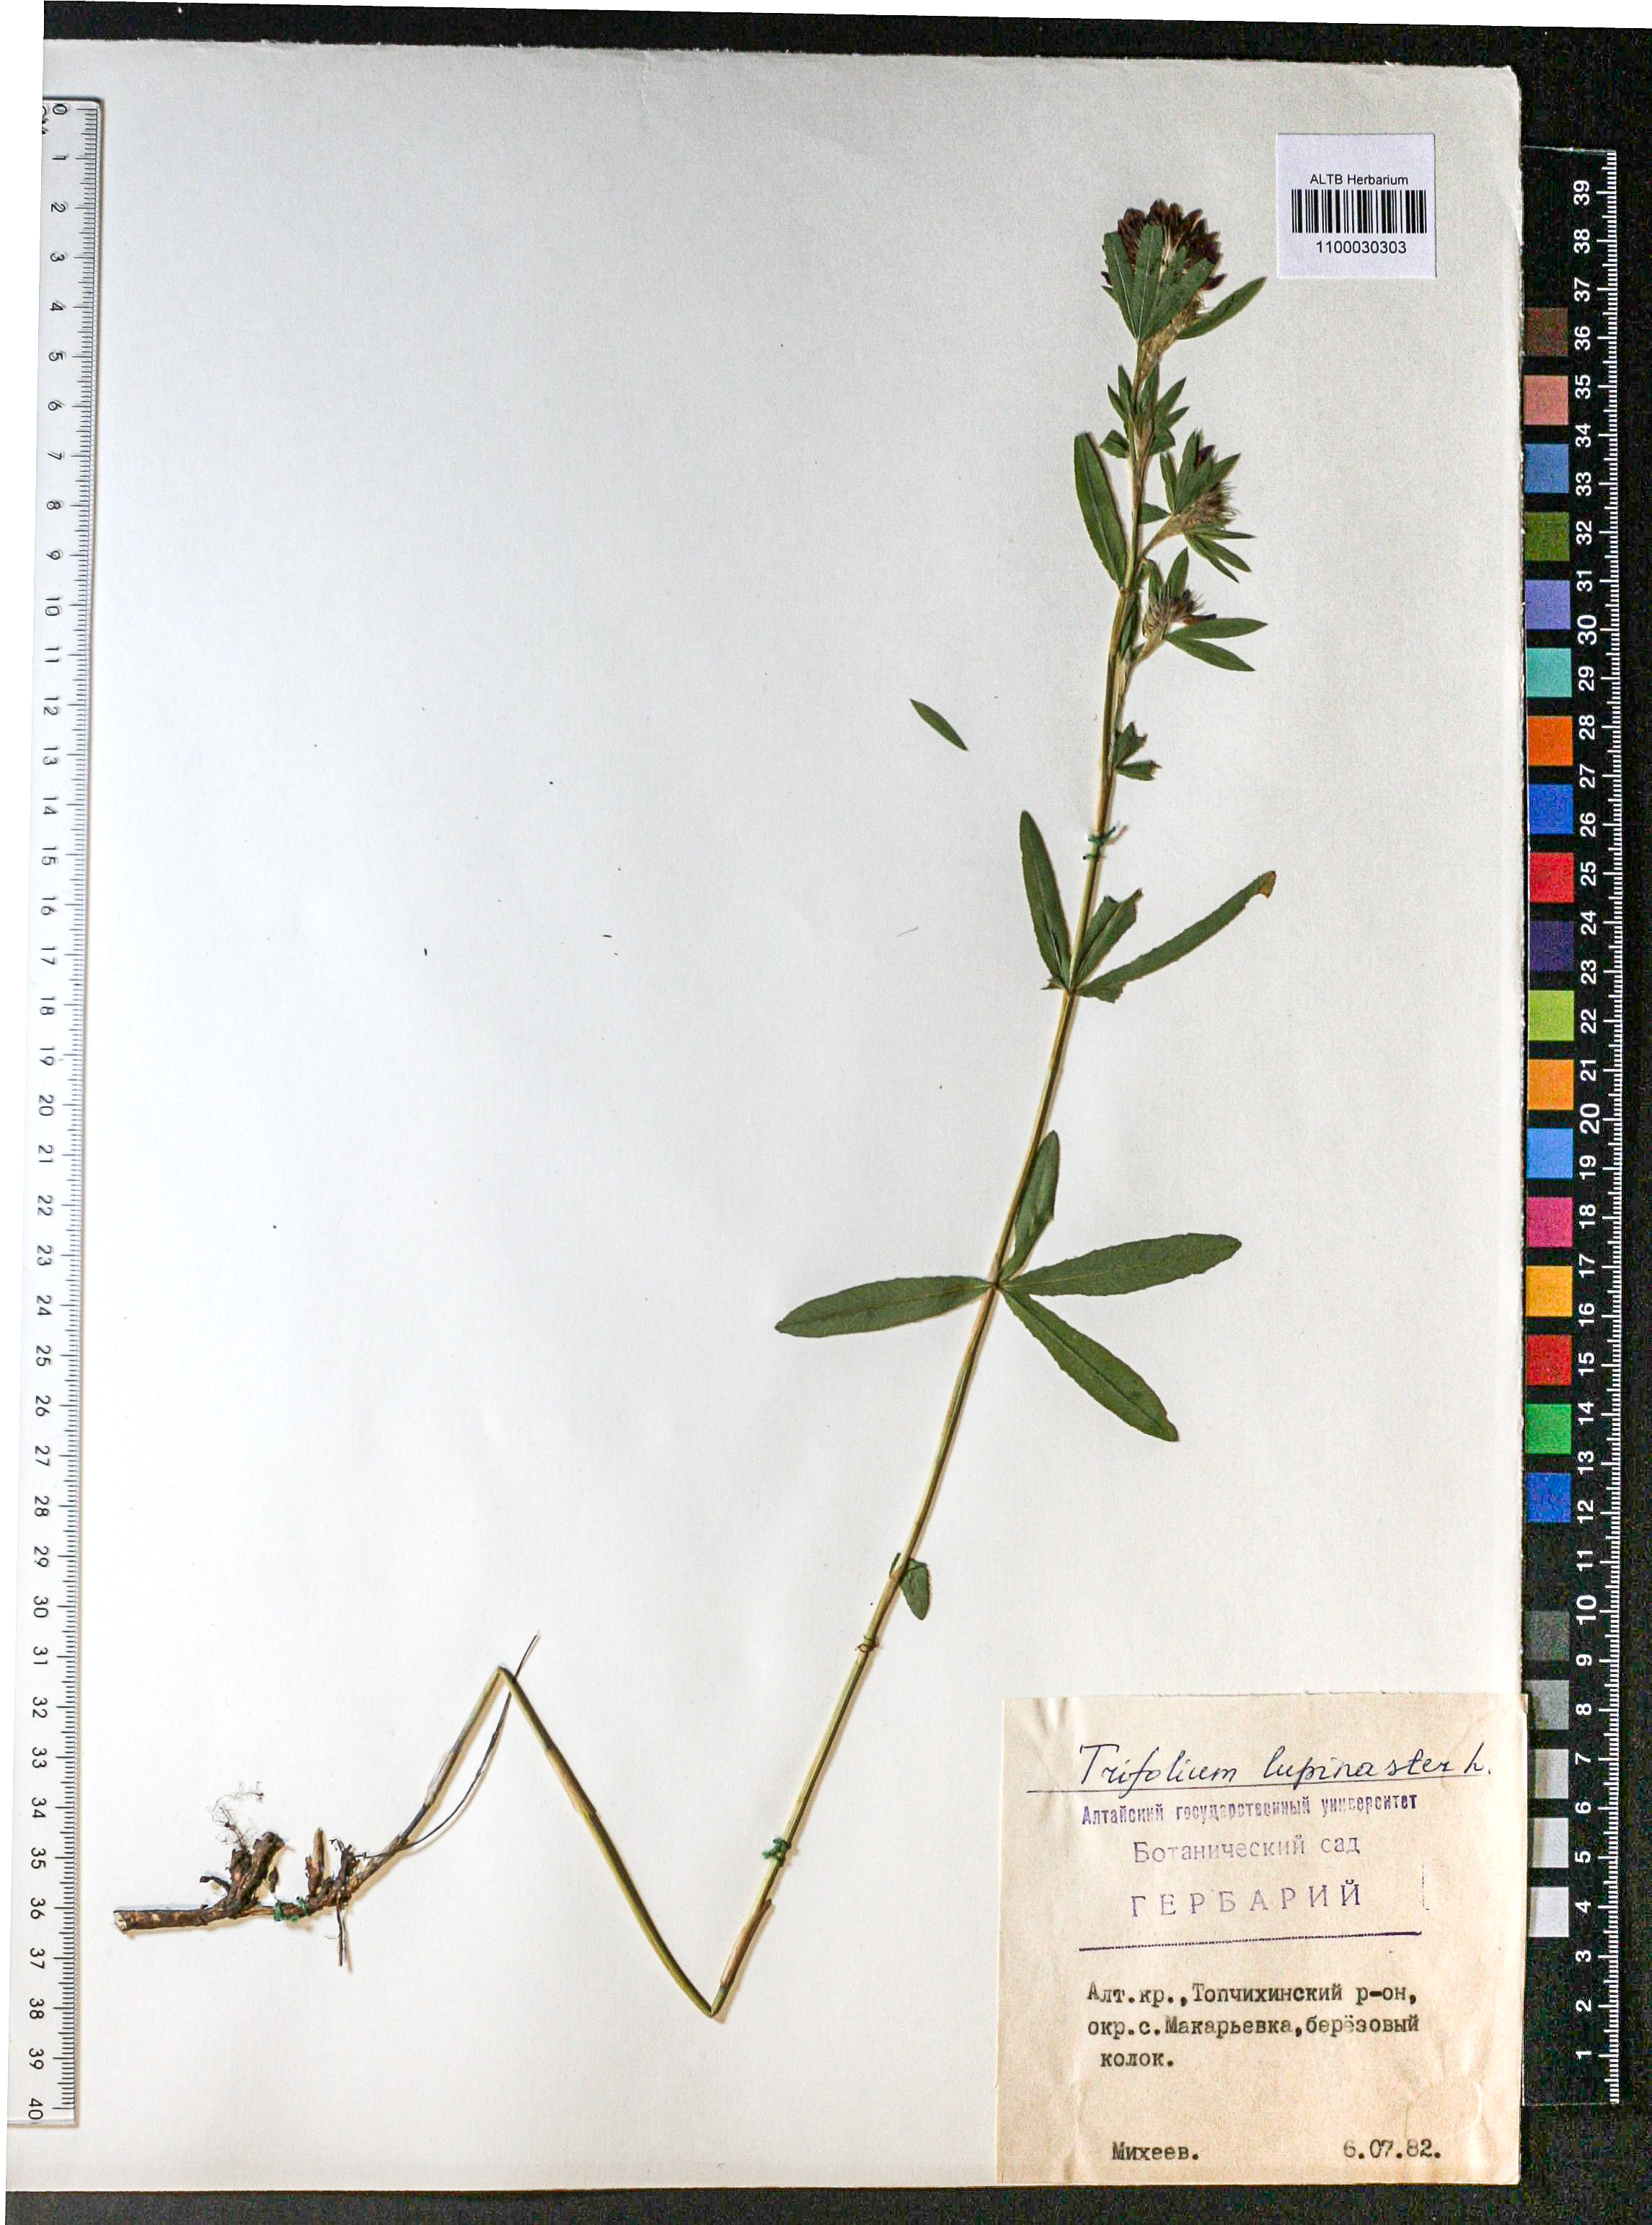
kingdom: Plantae
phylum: Tracheophyta
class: Magnoliopsida
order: Fabales
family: Fabaceae
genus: Trifolium
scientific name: Trifolium lupinaster
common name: Lupine clover
